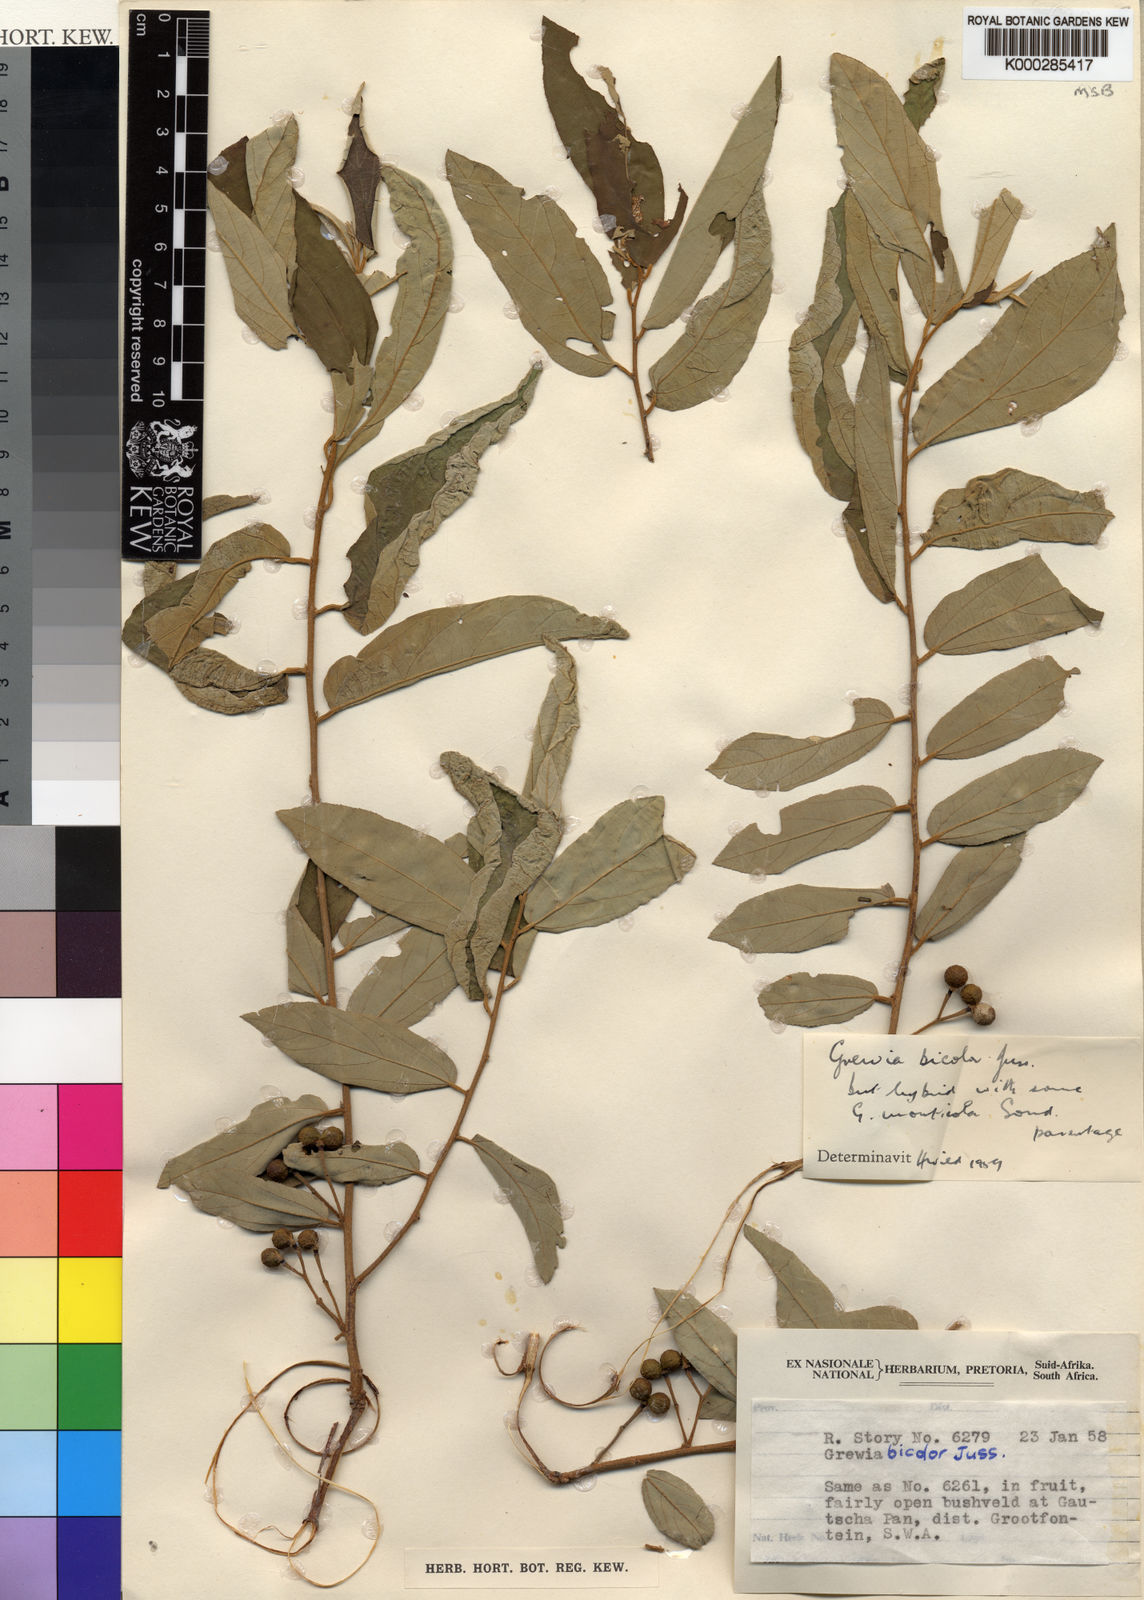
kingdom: Plantae
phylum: Tracheophyta
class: Magnoliopsida
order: Malvales
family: Malvaceae
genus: Grewia
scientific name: Grewia subspathulata
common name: False grey raisin
